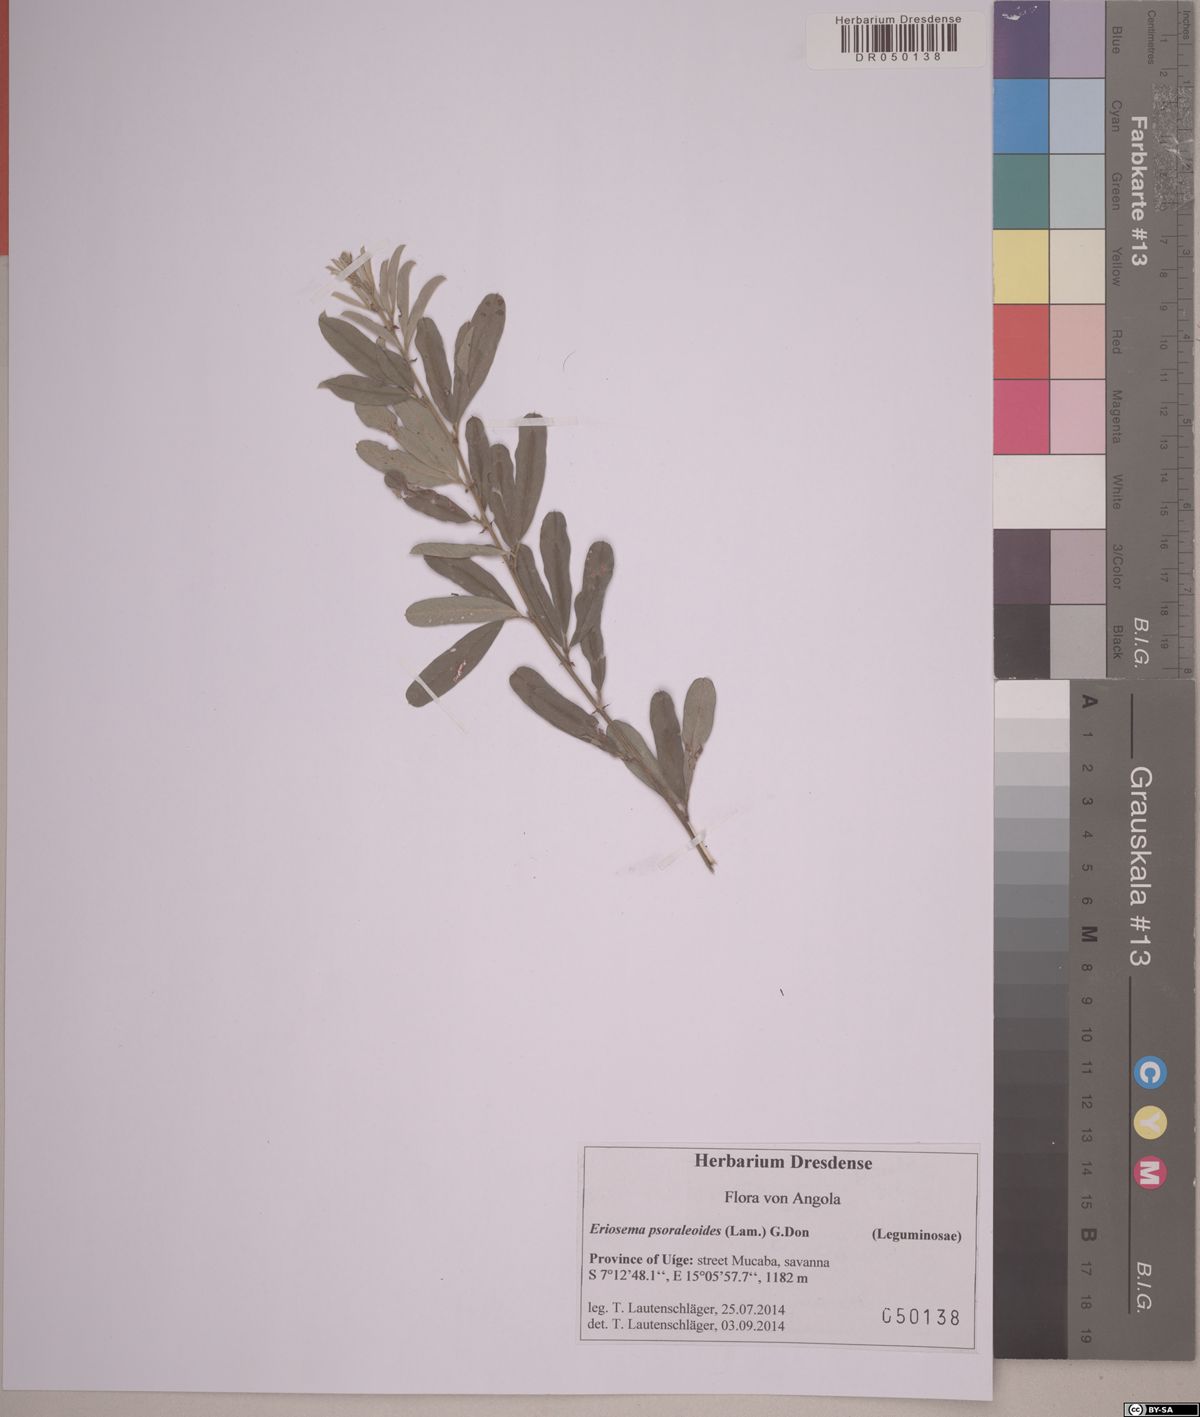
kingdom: Plantae
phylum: Tracheophyta
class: Magnoliopsida
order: Fabales
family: Fabaceae
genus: Eriosema
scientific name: Eriosema psoraleoides
